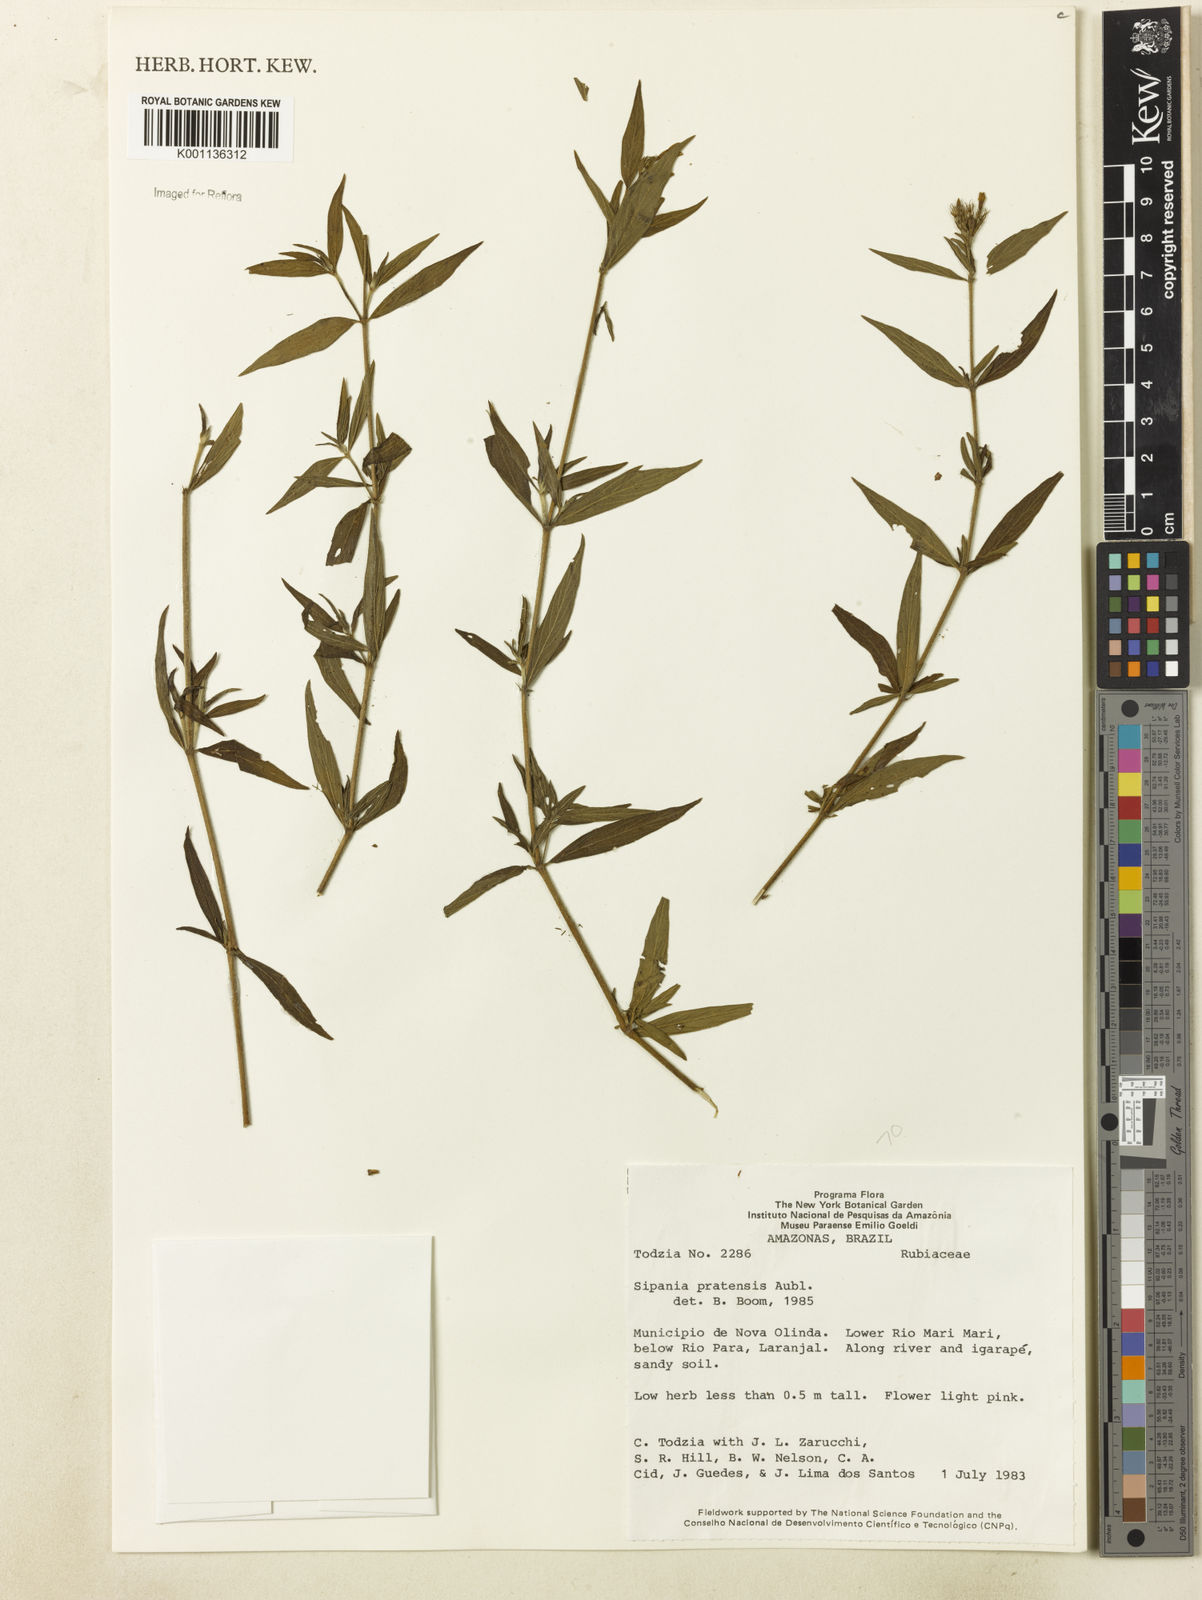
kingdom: Plantae
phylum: Tracheophyta
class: Magnoliopsida
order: Gentianales
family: Rubiaceae
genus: Sipanea
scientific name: Sipanea pratensis
